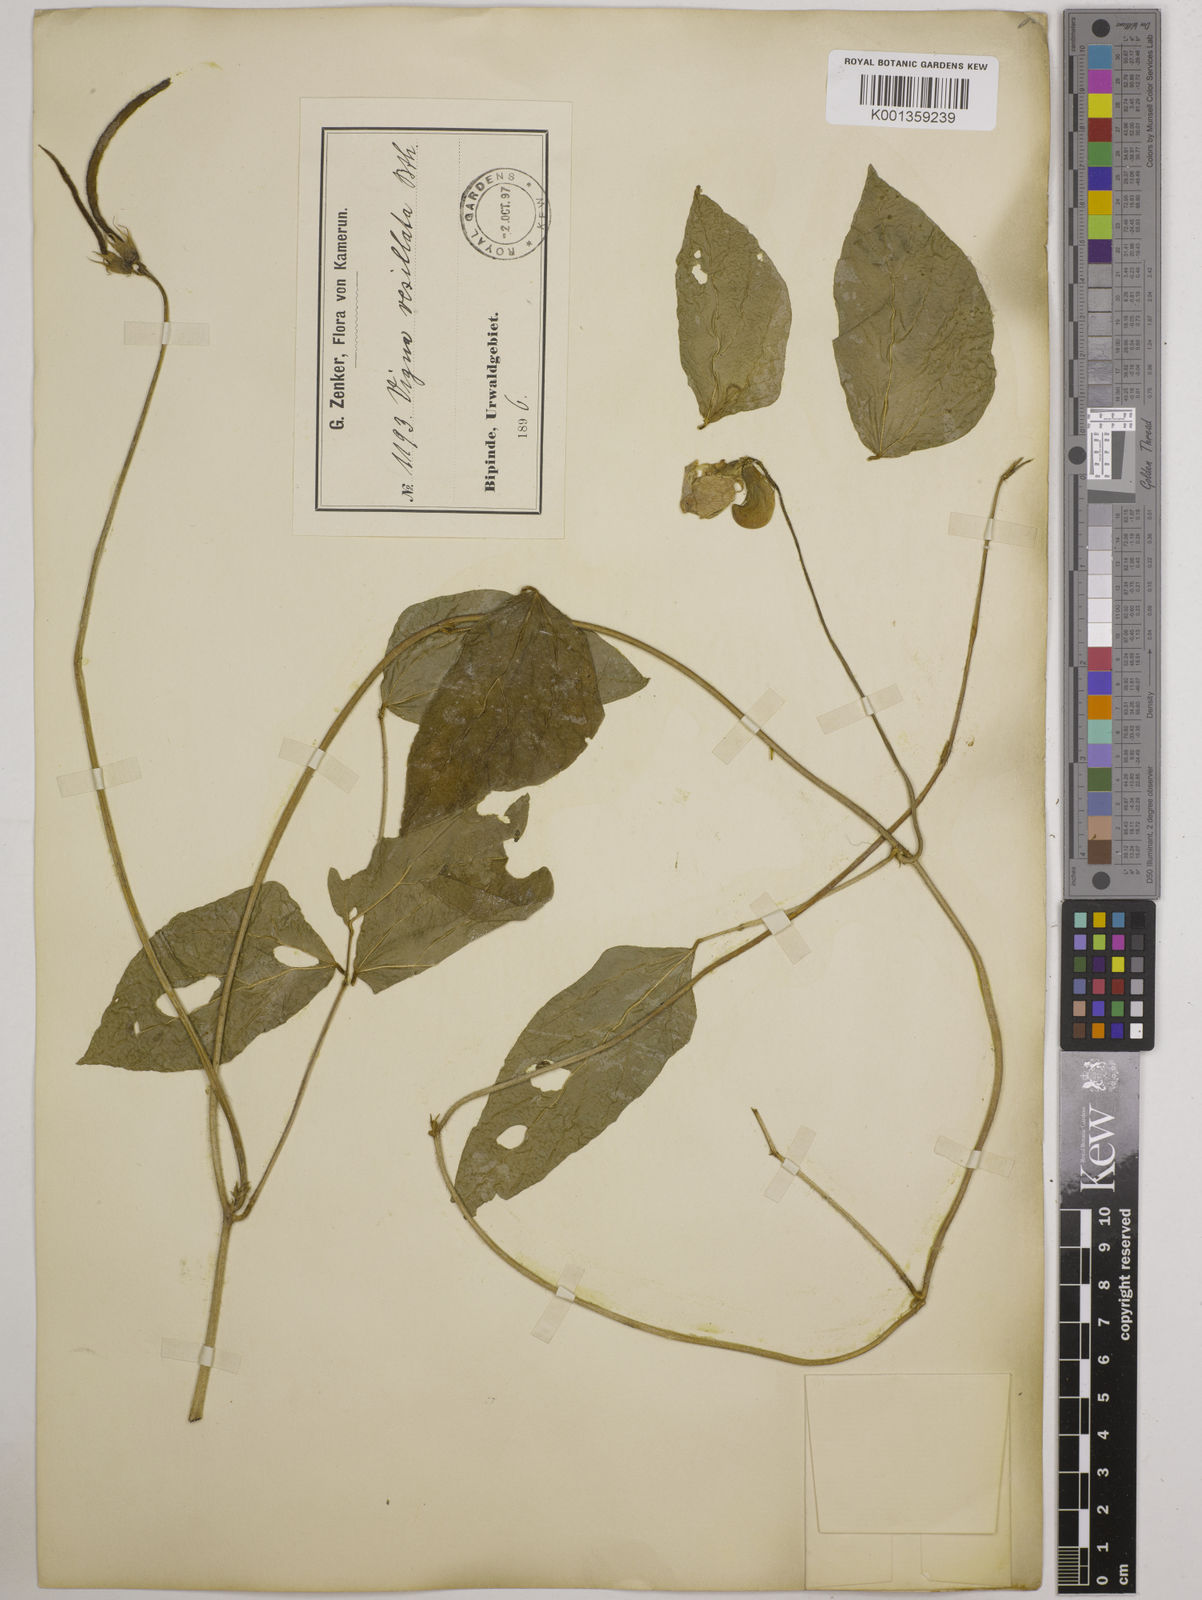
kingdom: Plantae
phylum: Tracheophyta
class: Magnoliopsida
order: Fabales
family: Fabaceae
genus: Vigna
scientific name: Vigna vexillata
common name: Zombi pea
